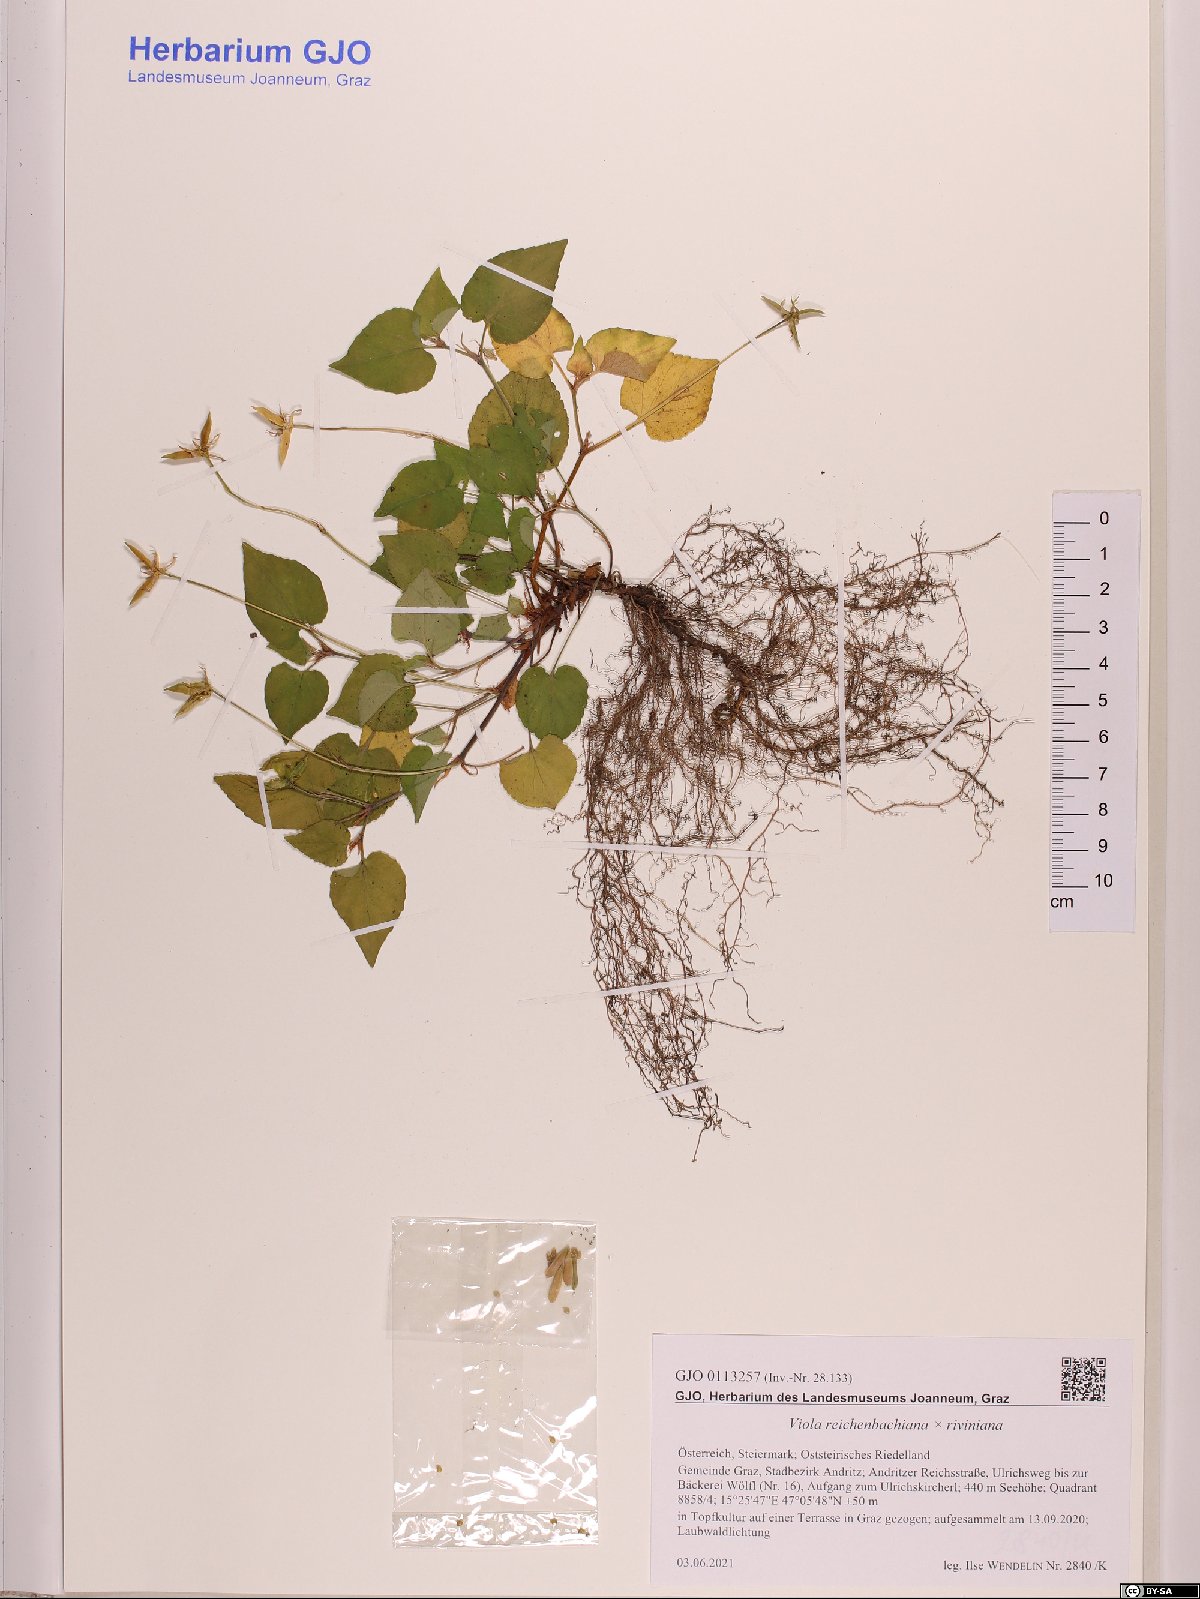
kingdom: Plantae
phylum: Tracheophyta
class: Magnoliopsida
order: Malpighiales
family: Violaceae
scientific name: Violaceae
